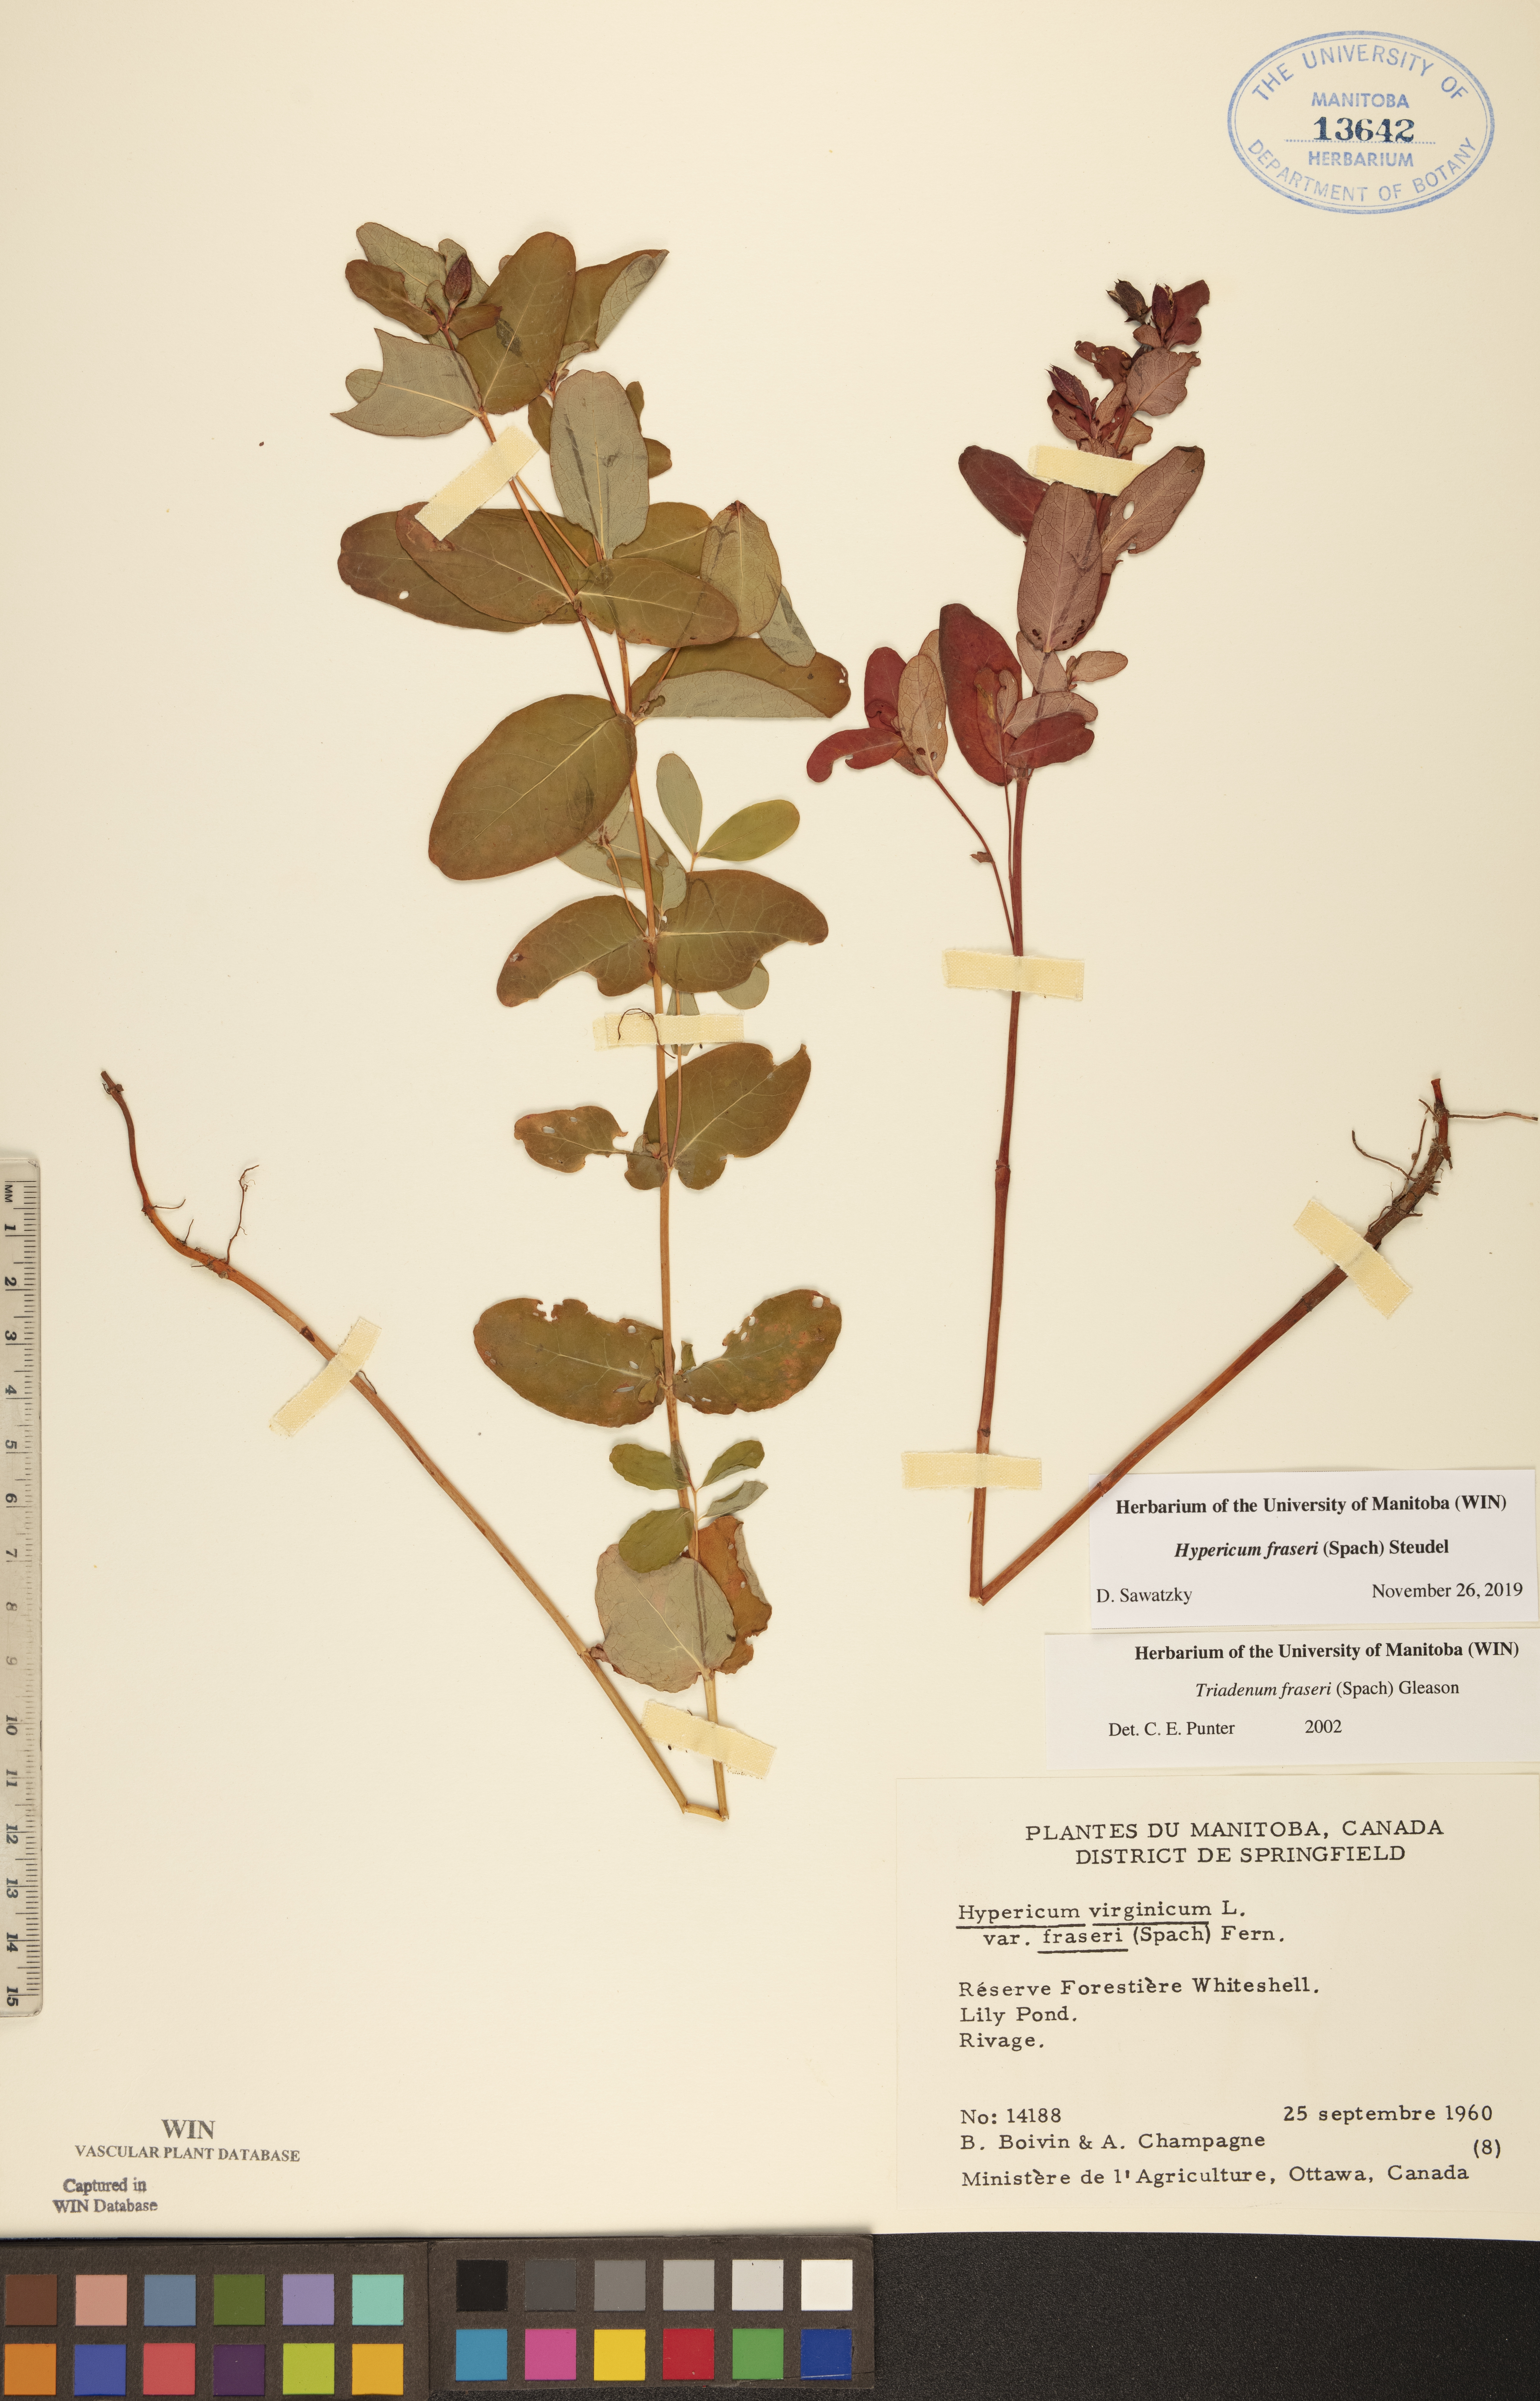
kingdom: Plantae
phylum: Tracheophyta
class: Magnoliopsida
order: Malpighiales
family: Hypericaceae
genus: Triadenum
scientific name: Triadenum fraseri
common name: Fraser's marsh st. johnswort
